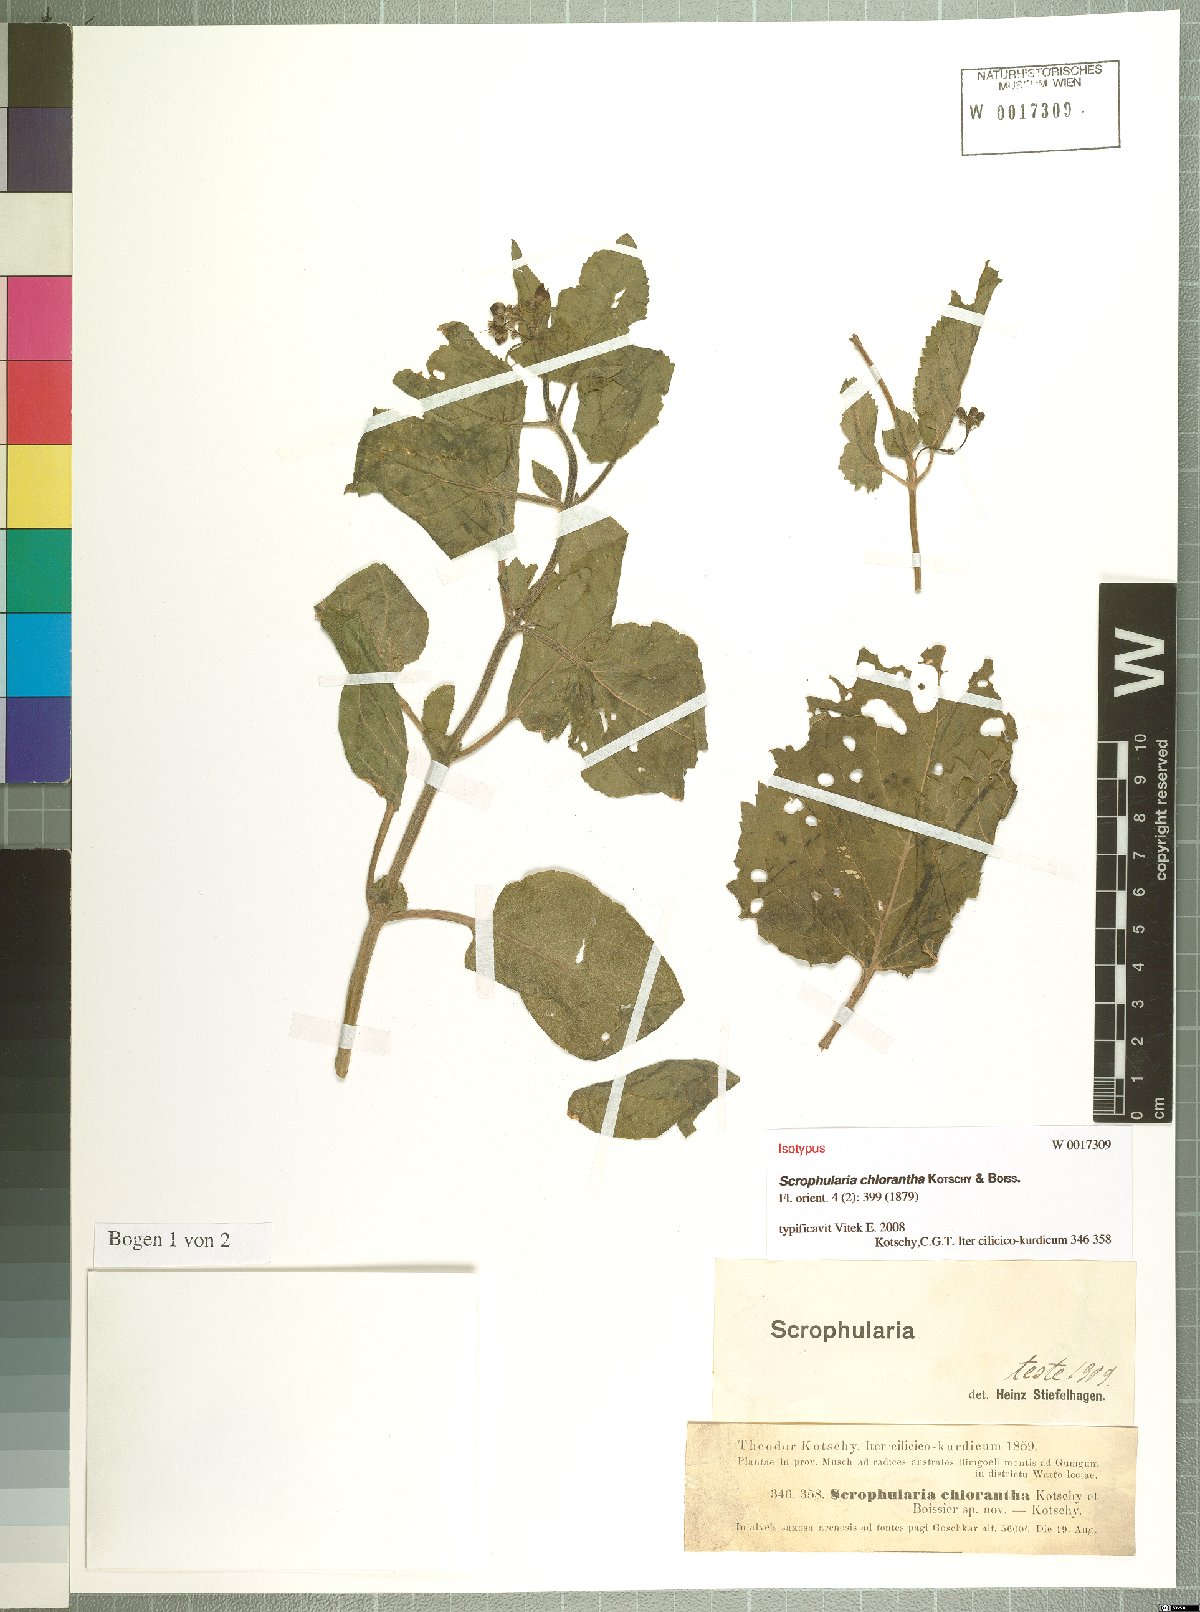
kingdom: Plantae
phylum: Tracheophyta
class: Magnoliopsida
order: Lamiales
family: Scrophulariaceae
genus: Scrophularia
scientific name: Scrophularia chlorantha
